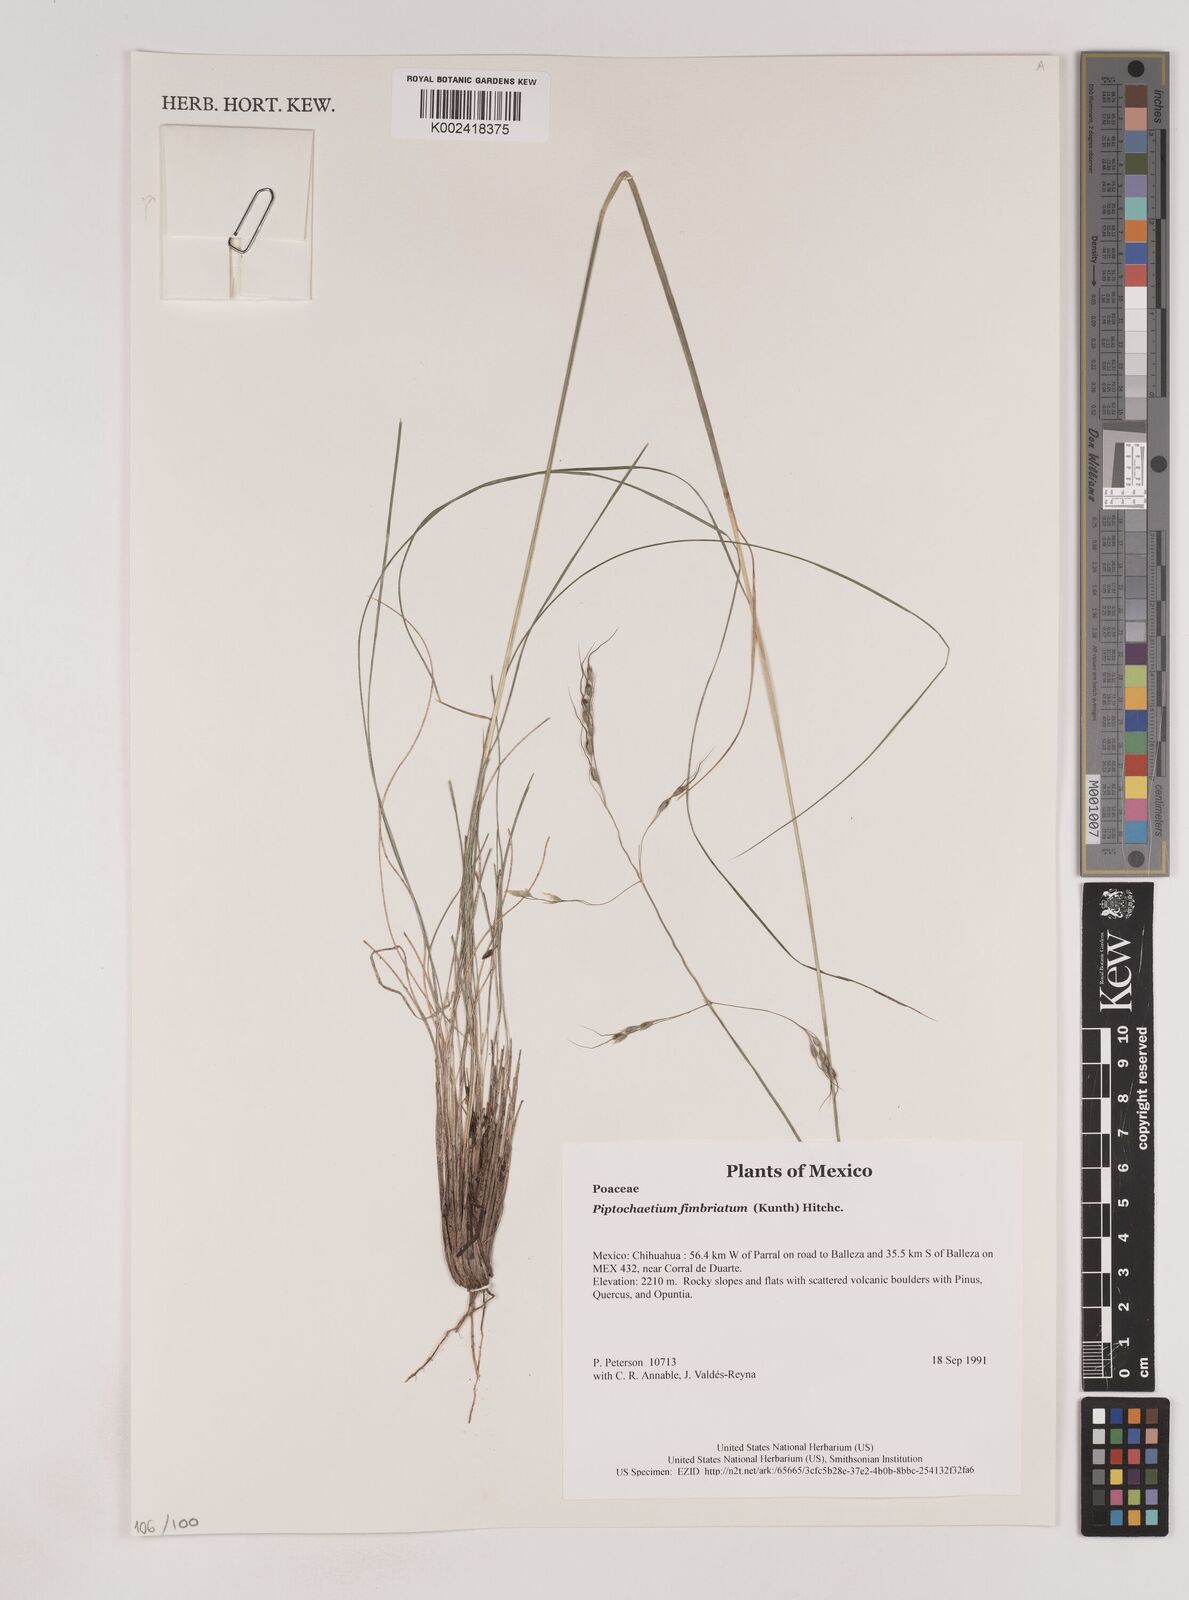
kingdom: Plantae
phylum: Tracheophyta
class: Liliopsida
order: Poales
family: Poaceae
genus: Piptochaetium
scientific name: Piptochaetium fimbriatum
